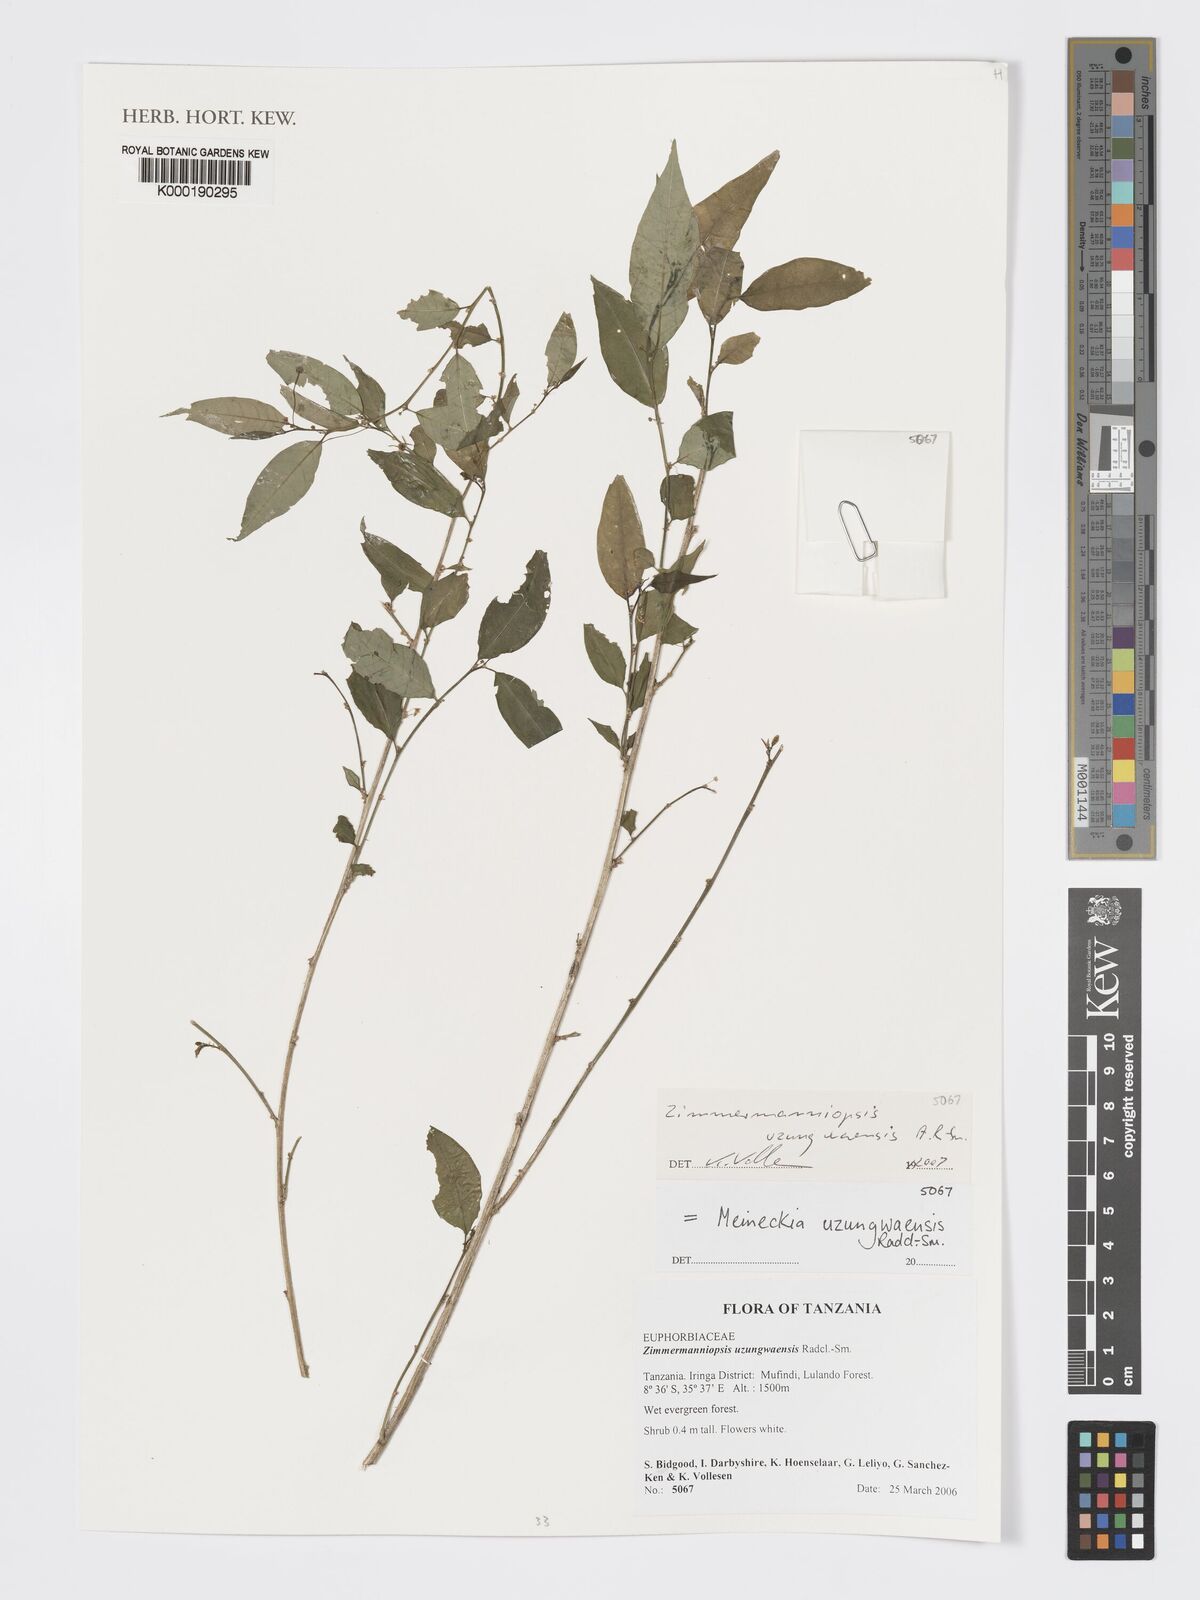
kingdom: Plantae
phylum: Tracheophyta
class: Magnoliopsida
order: Malpighiales
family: Phyllanthaceae
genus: Meineckia
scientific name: Meineckia uzungwaensis
